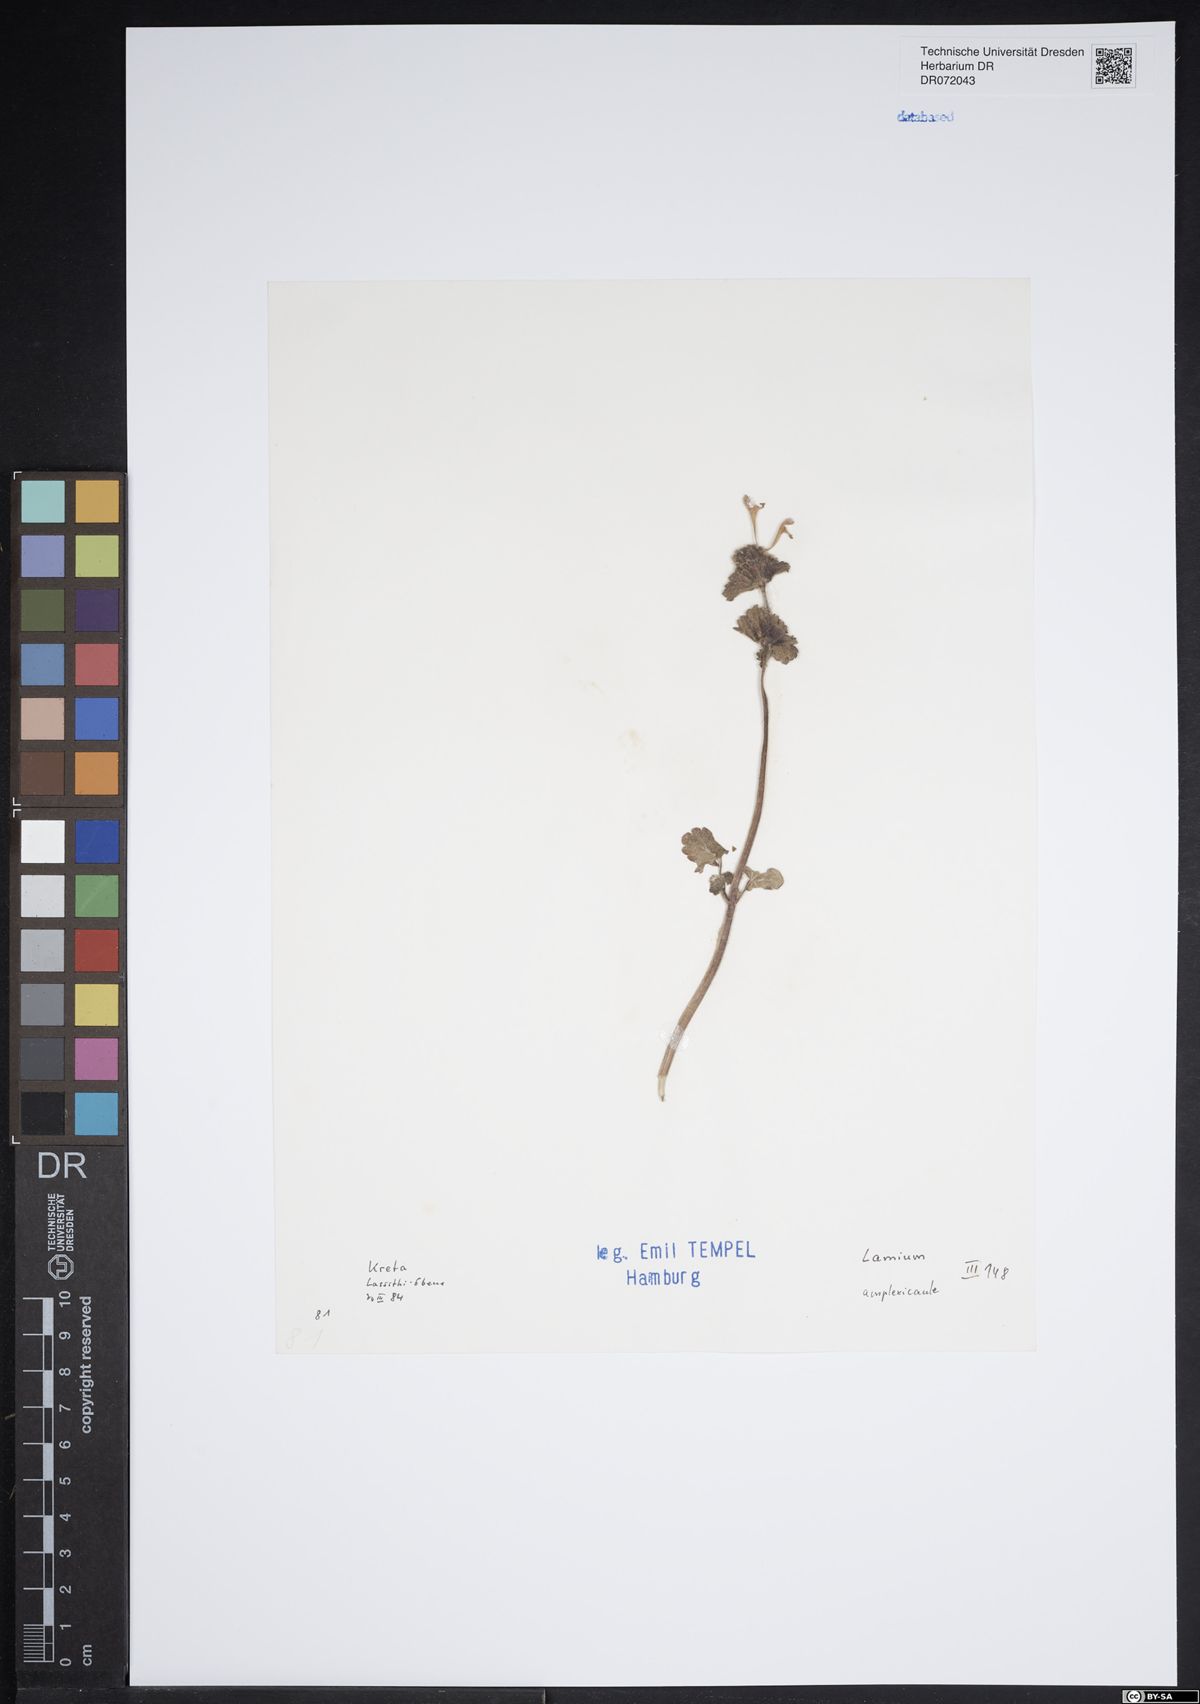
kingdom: Plantae
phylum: Tracheophyta
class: Magnoliopsida
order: Lamiales
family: Lamiaceae
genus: Lamium
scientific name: Lamium amplexicaule
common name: Henbit dead-nettle
